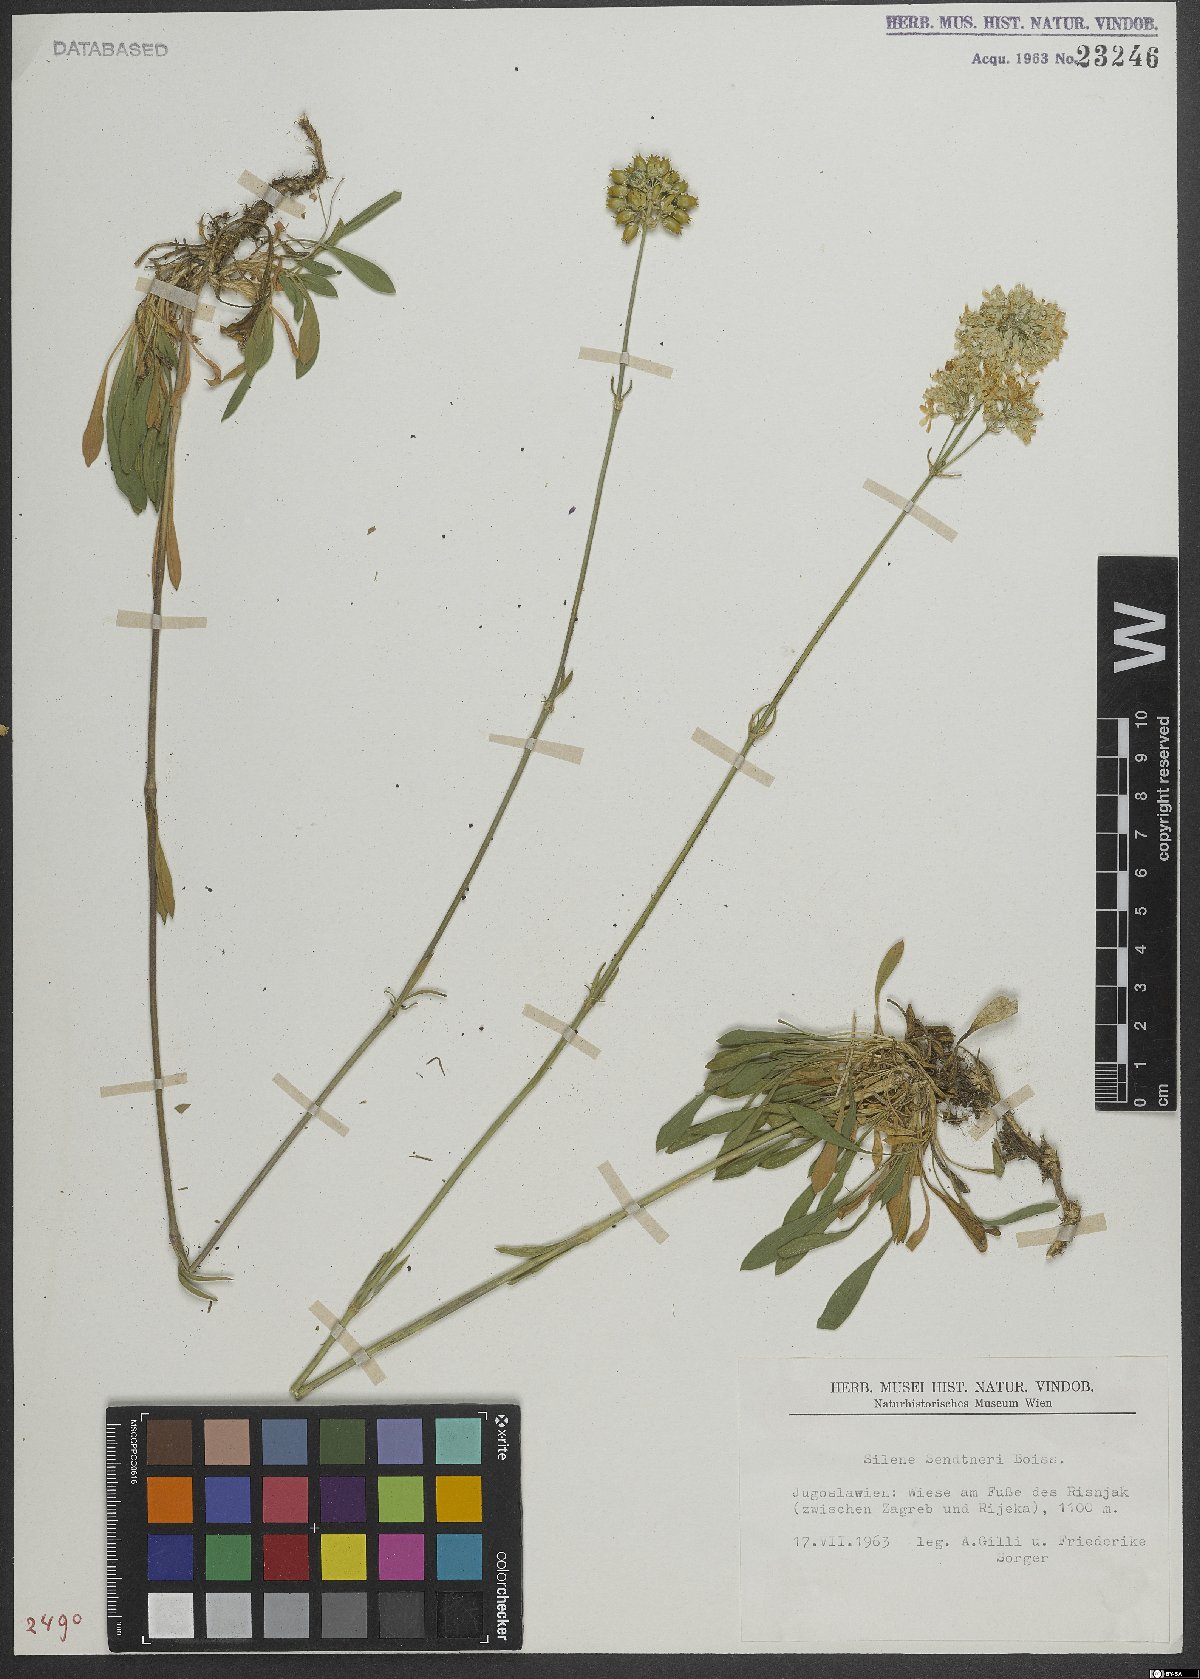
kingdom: Plantae
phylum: Tracheophyta
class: Magnoliopsida
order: Caryophyllales
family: Caryophyllaceae
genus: Silene
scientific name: Silene sendtneri
